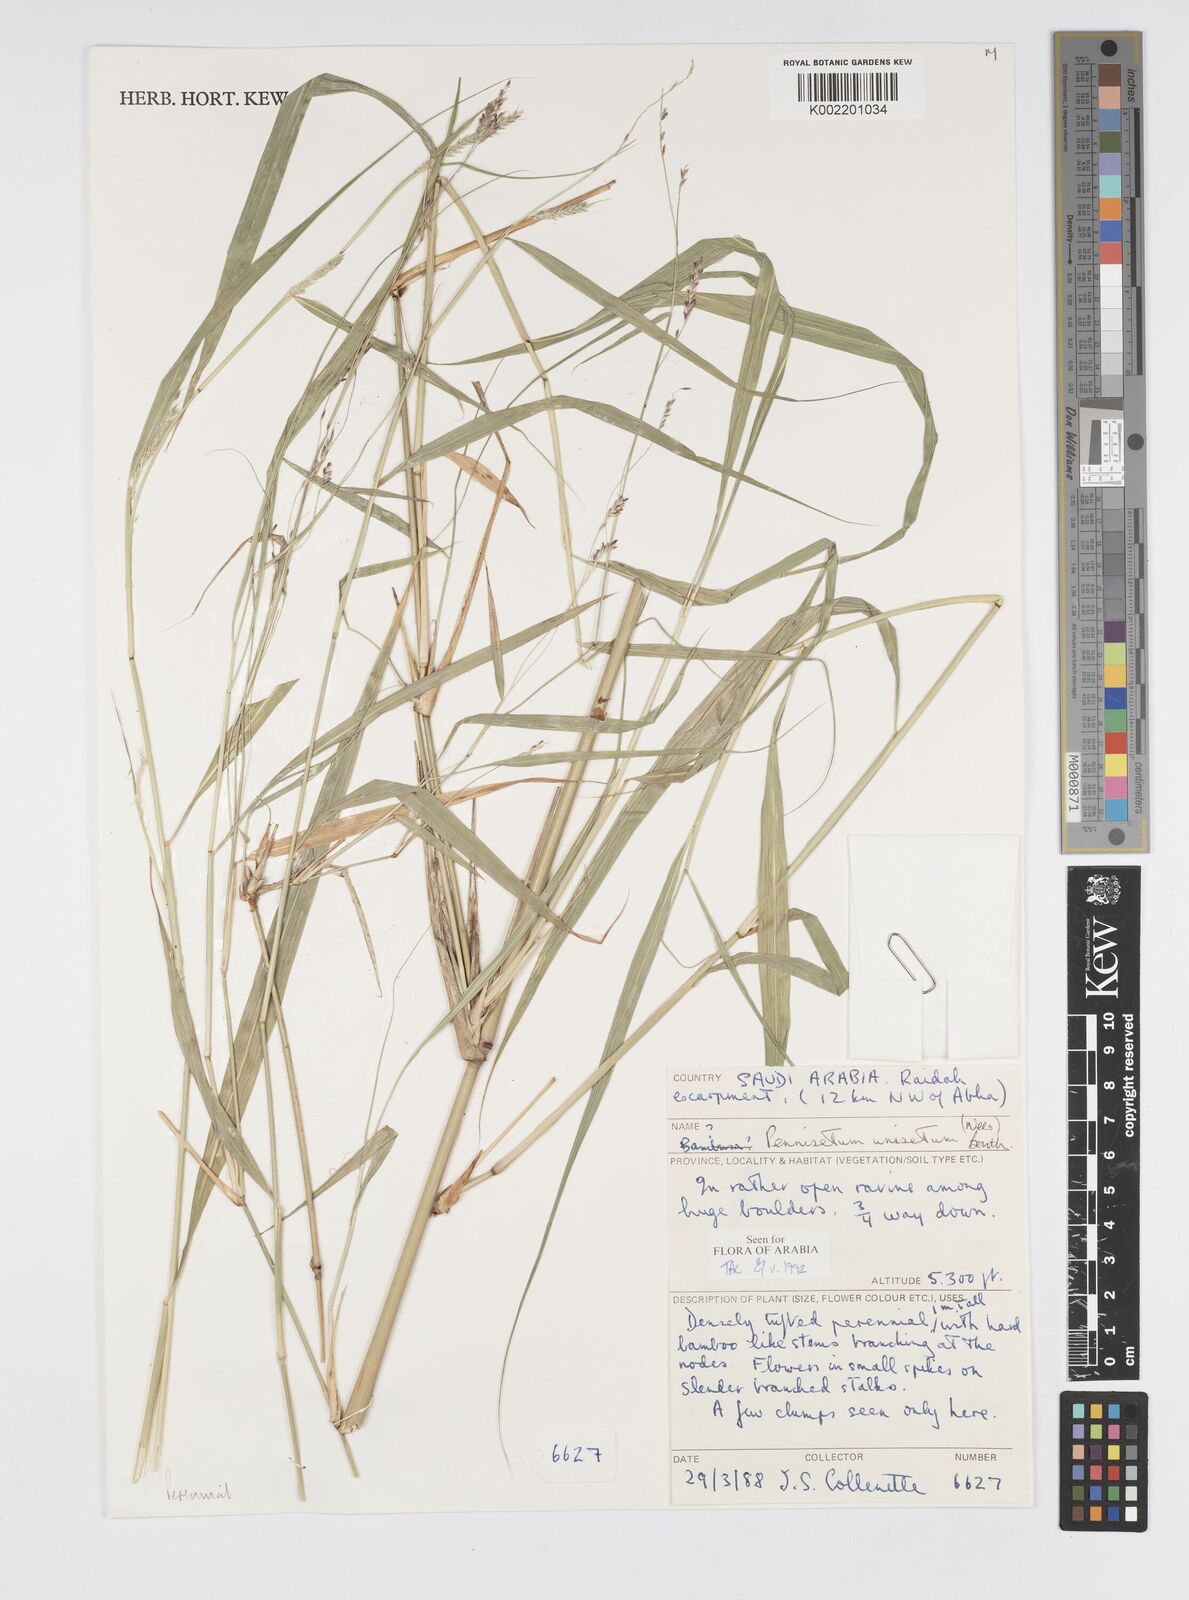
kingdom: Plantae
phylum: Tracheophyta
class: Liliopsida
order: Poales
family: Poaceae
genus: Cenchrus
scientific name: Cenchrus unisetus
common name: Natal grass
